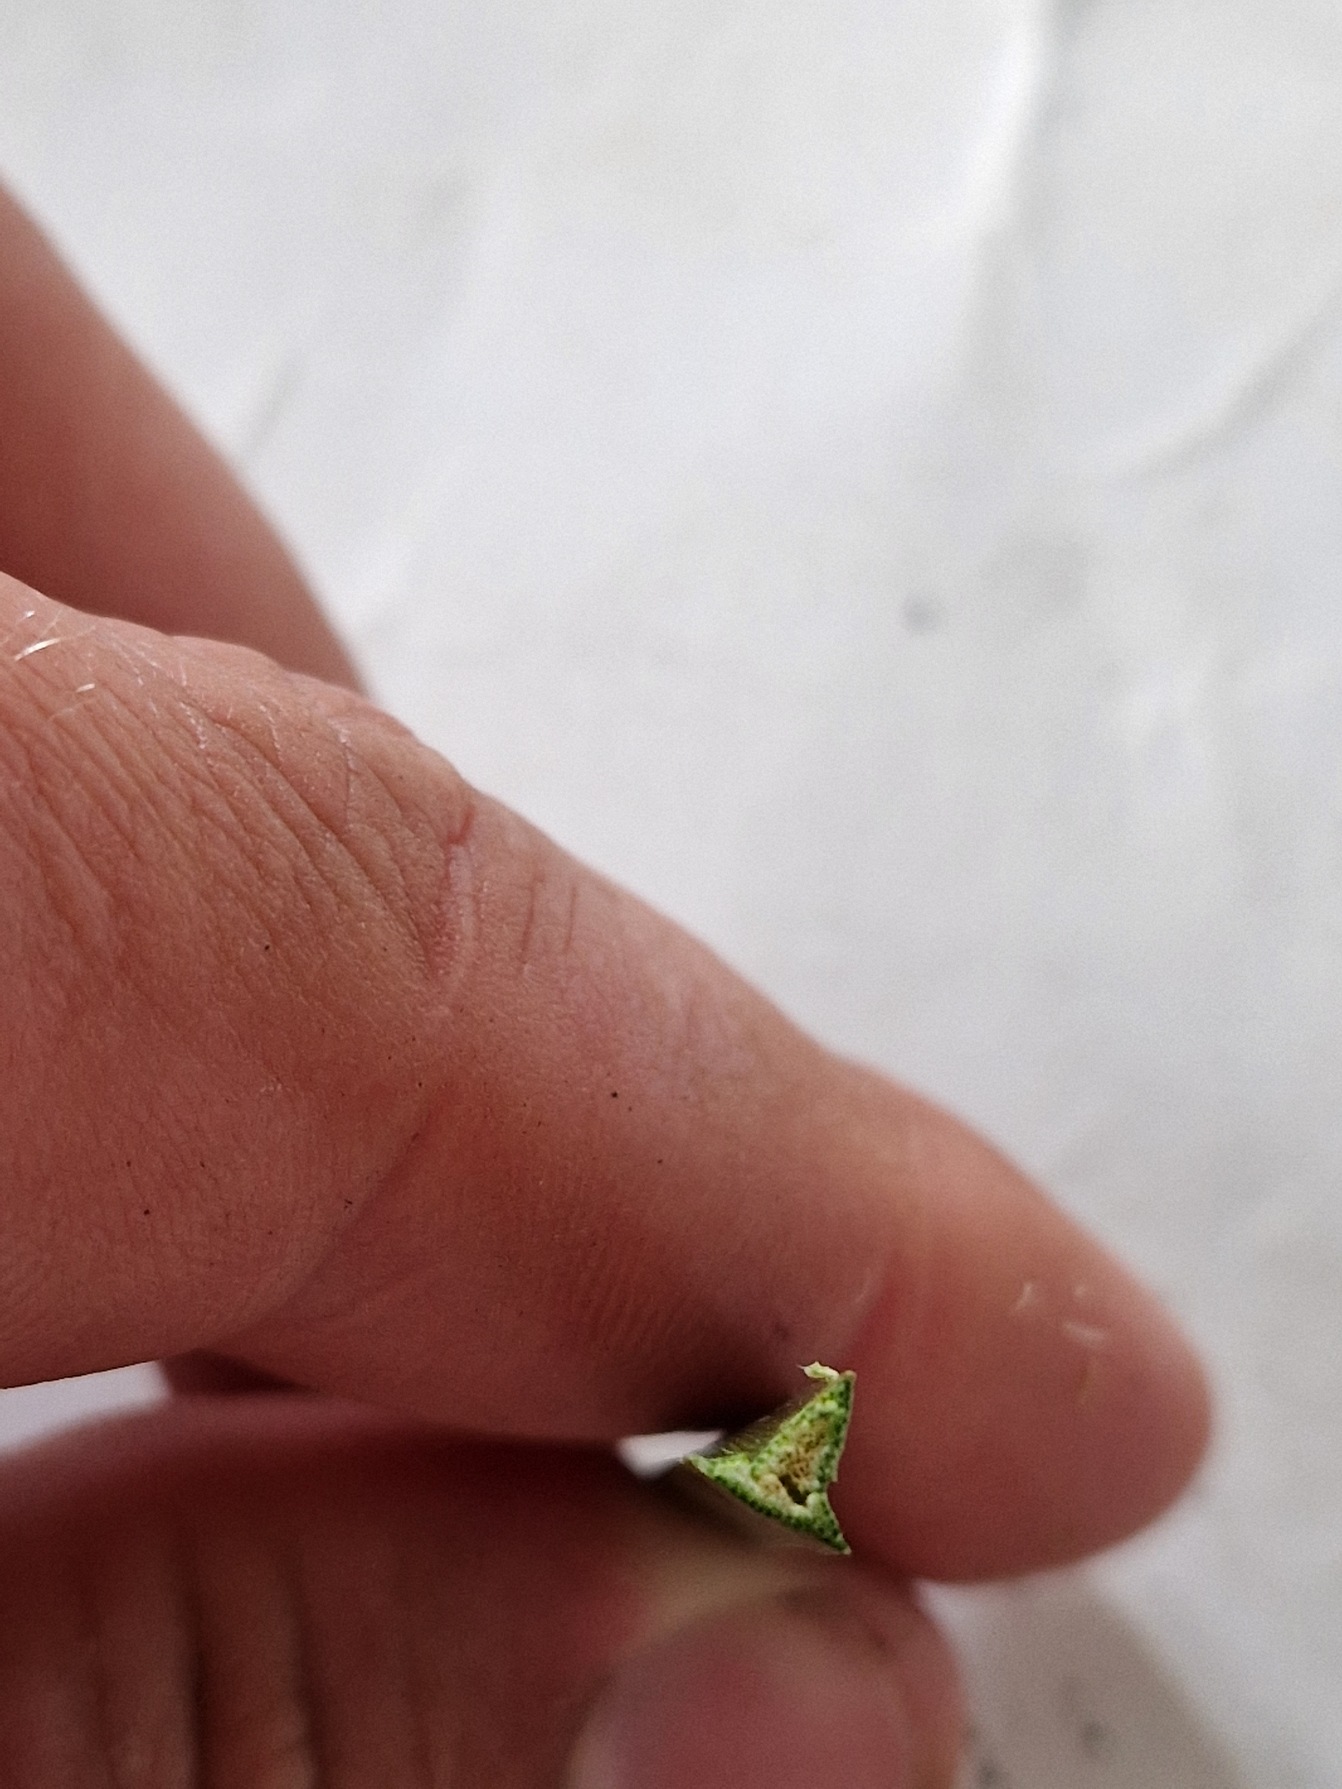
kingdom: Plantae
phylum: Tracheophyta
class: Liliopsida
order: Poales
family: Cyperaceae
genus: Bolboschoenus
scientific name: Bolboschoenus maritimus
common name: Strand-kogleaks
